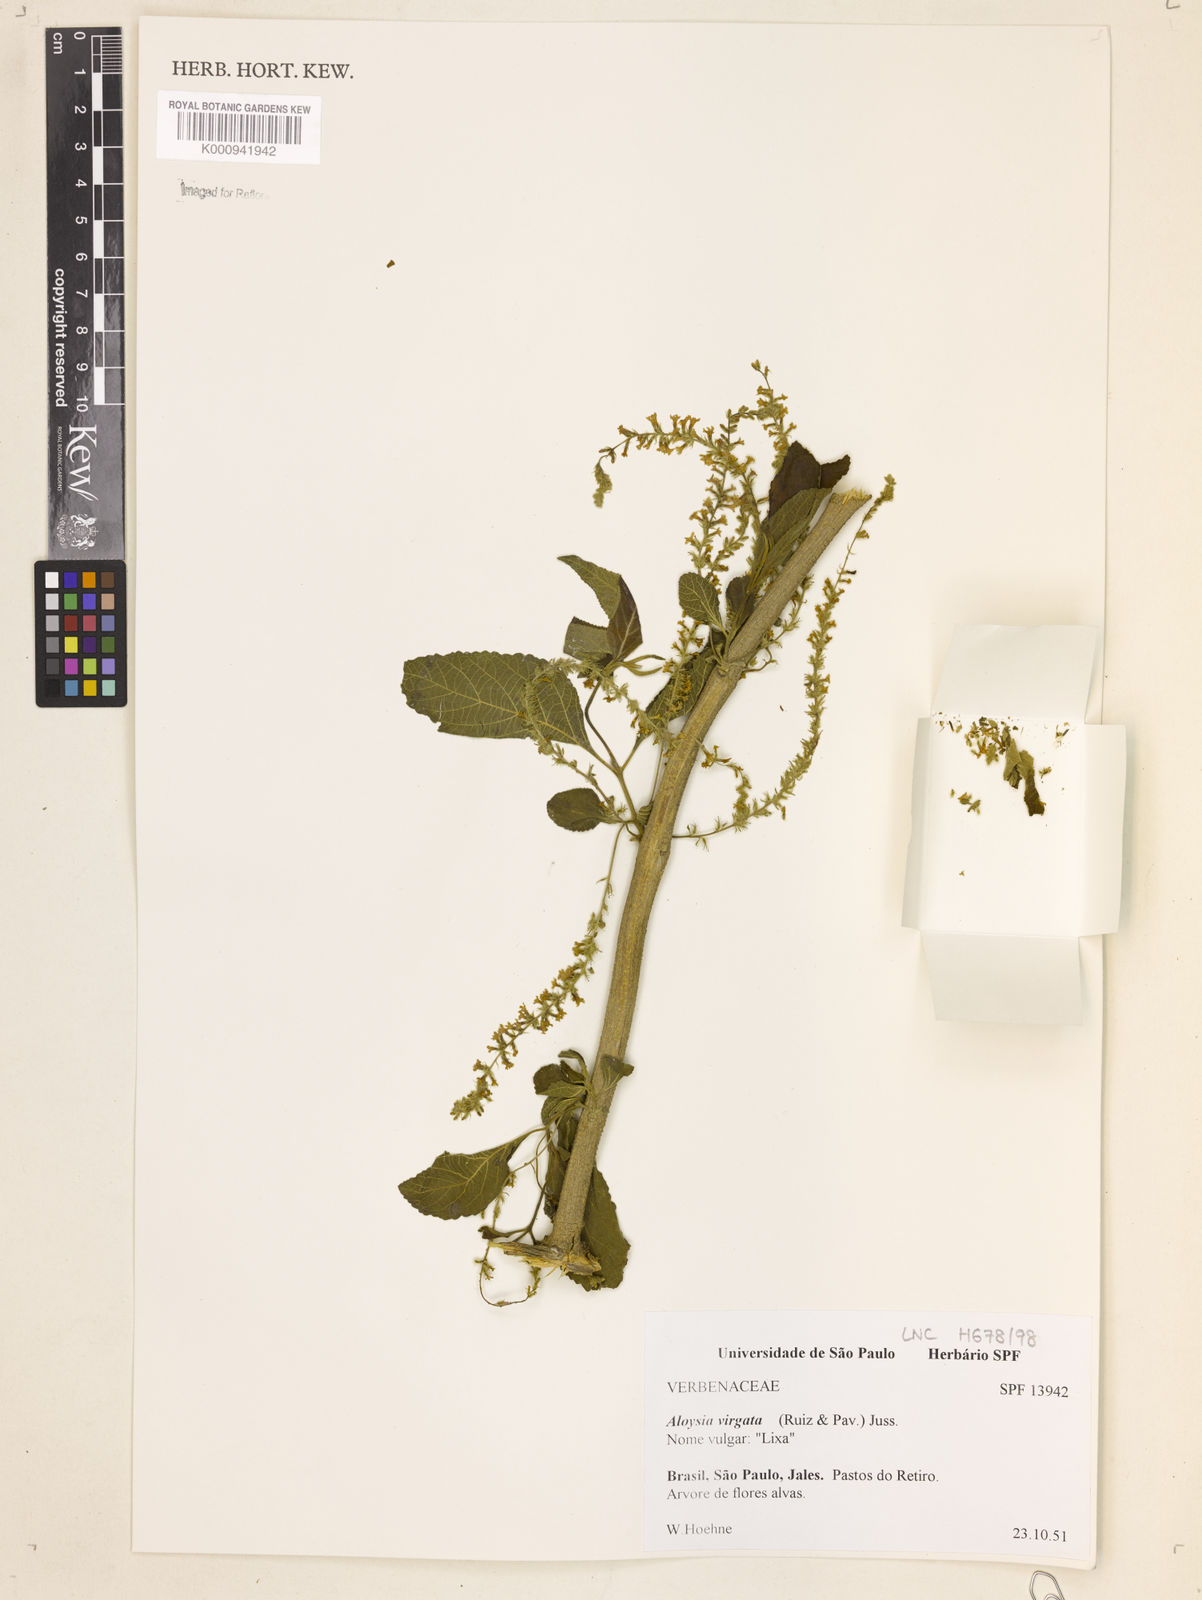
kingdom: Plantae
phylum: Tracheophyta
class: Magnoliopsida
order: Lamiales
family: Verbenaceae
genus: Aloysia
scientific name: Aloysia
